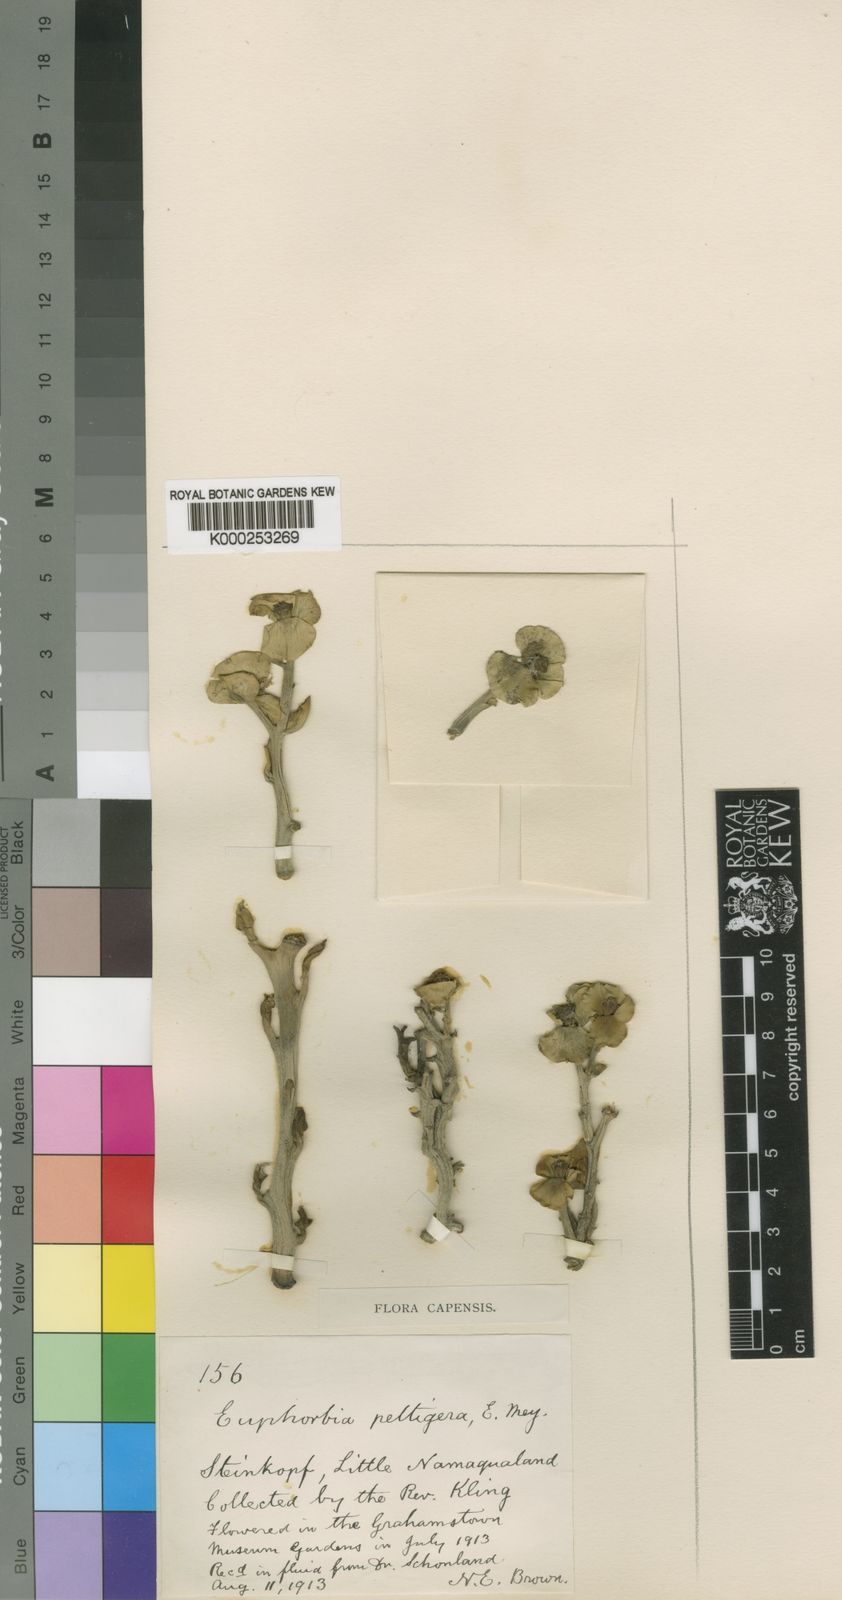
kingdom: Plantae
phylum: Tracheophyta
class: Magnoliopsida
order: Malpighiales
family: Euphorbiaceae
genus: Euphorbia
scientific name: Euphorbia hamata
